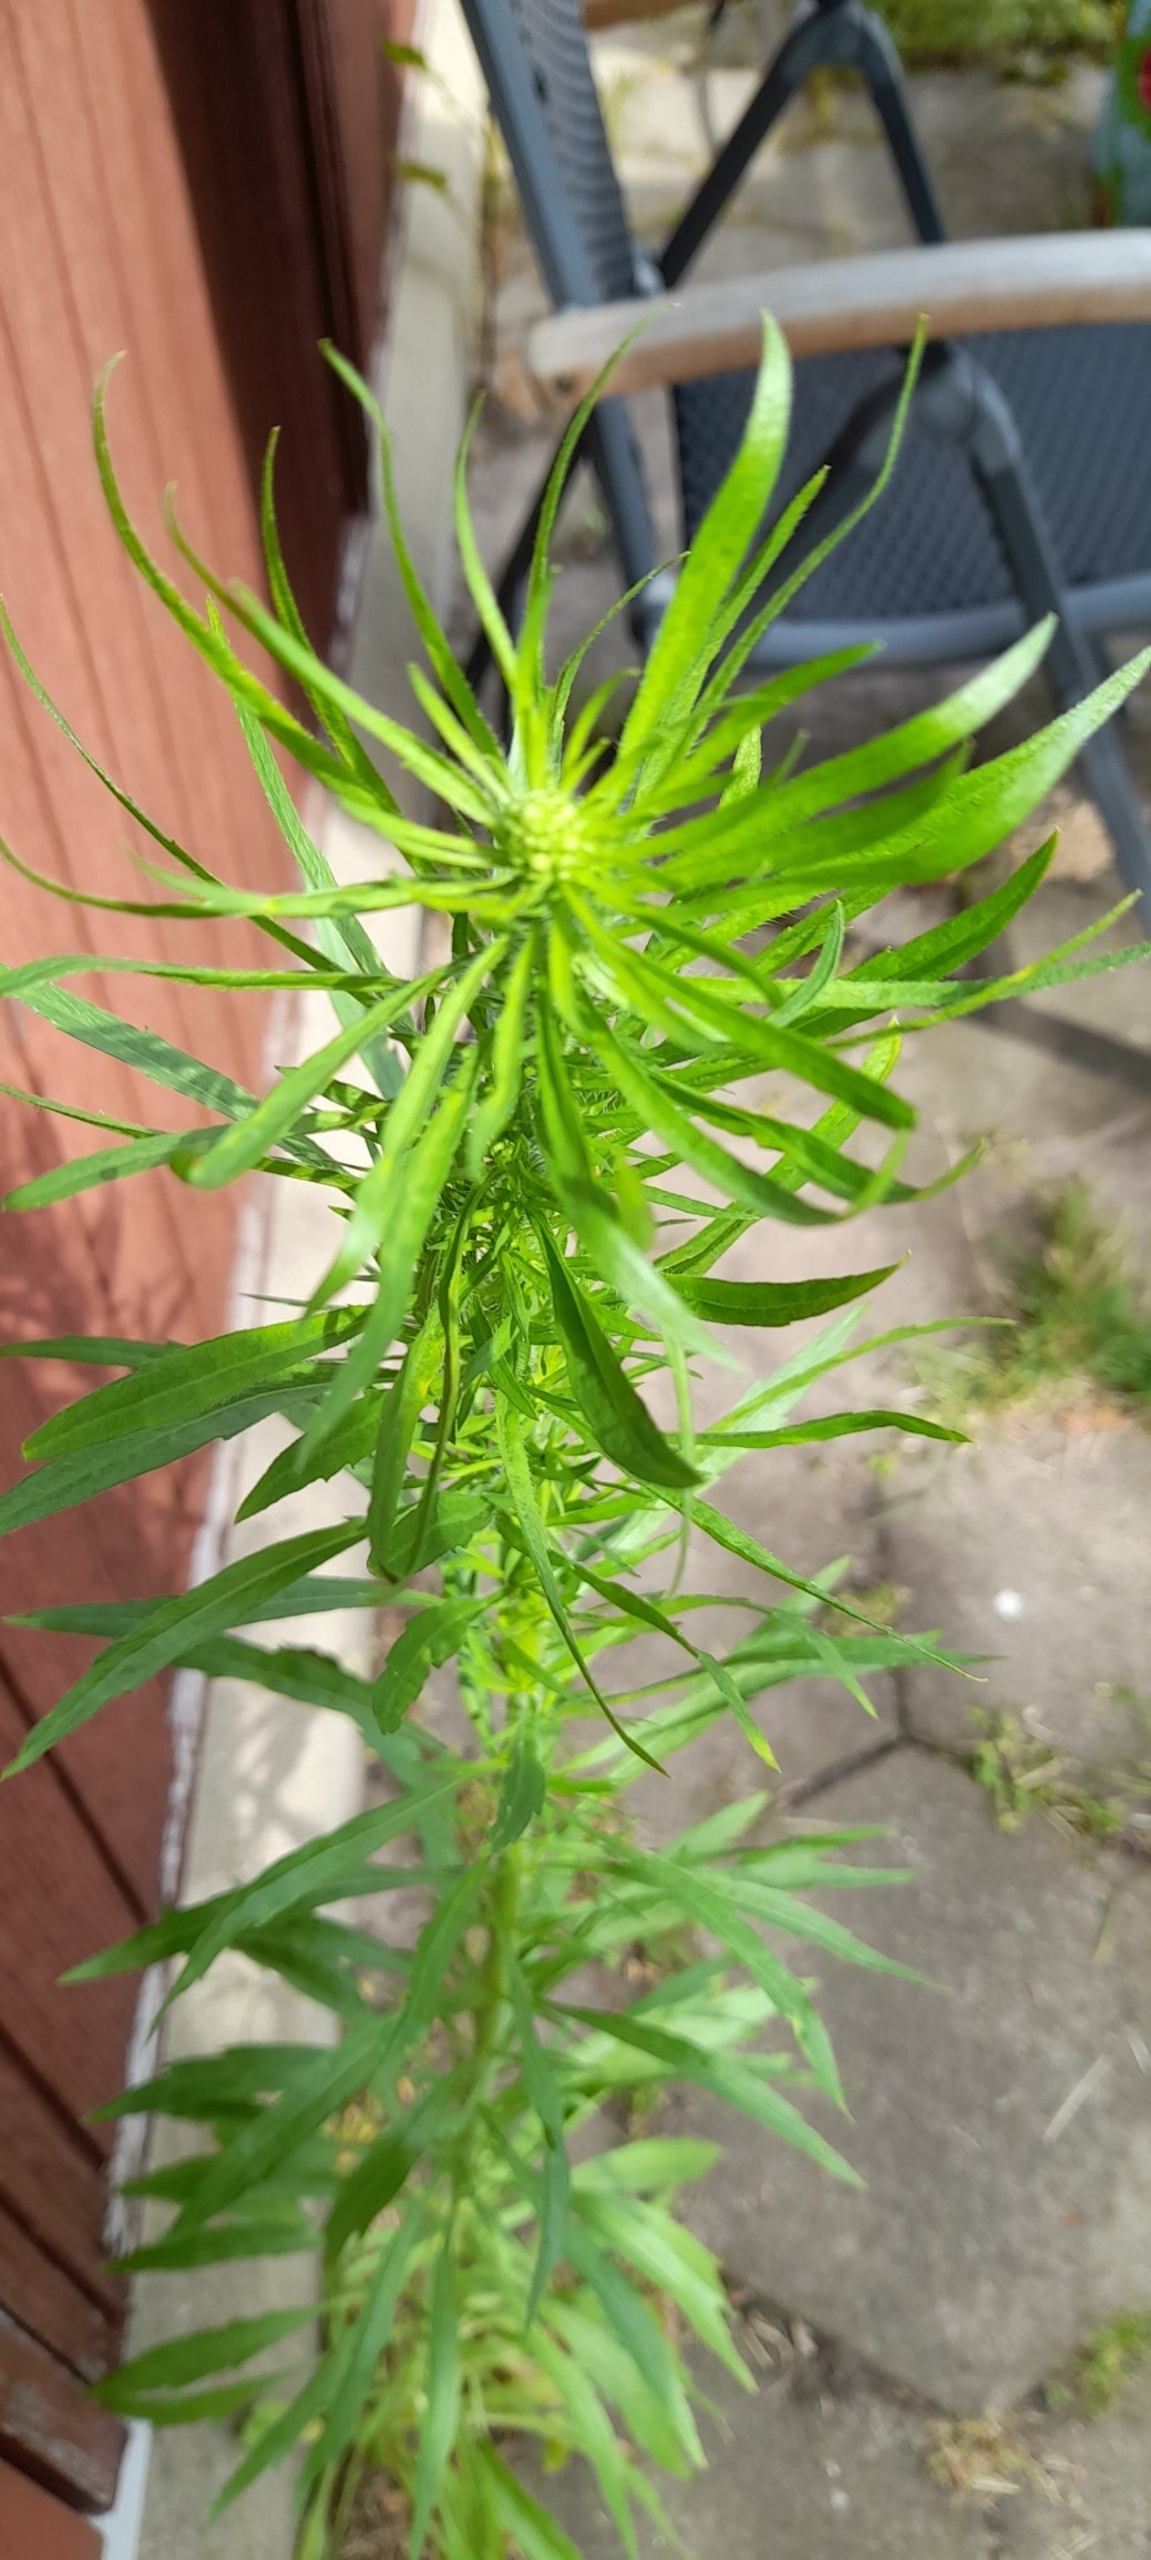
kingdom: Plantae
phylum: Tracheophyta
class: Magnoliopsida
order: Asterales
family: Asteraceae
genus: Erigeron
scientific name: Erigeron canadensis
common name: Kanadisk bakkestjerne
